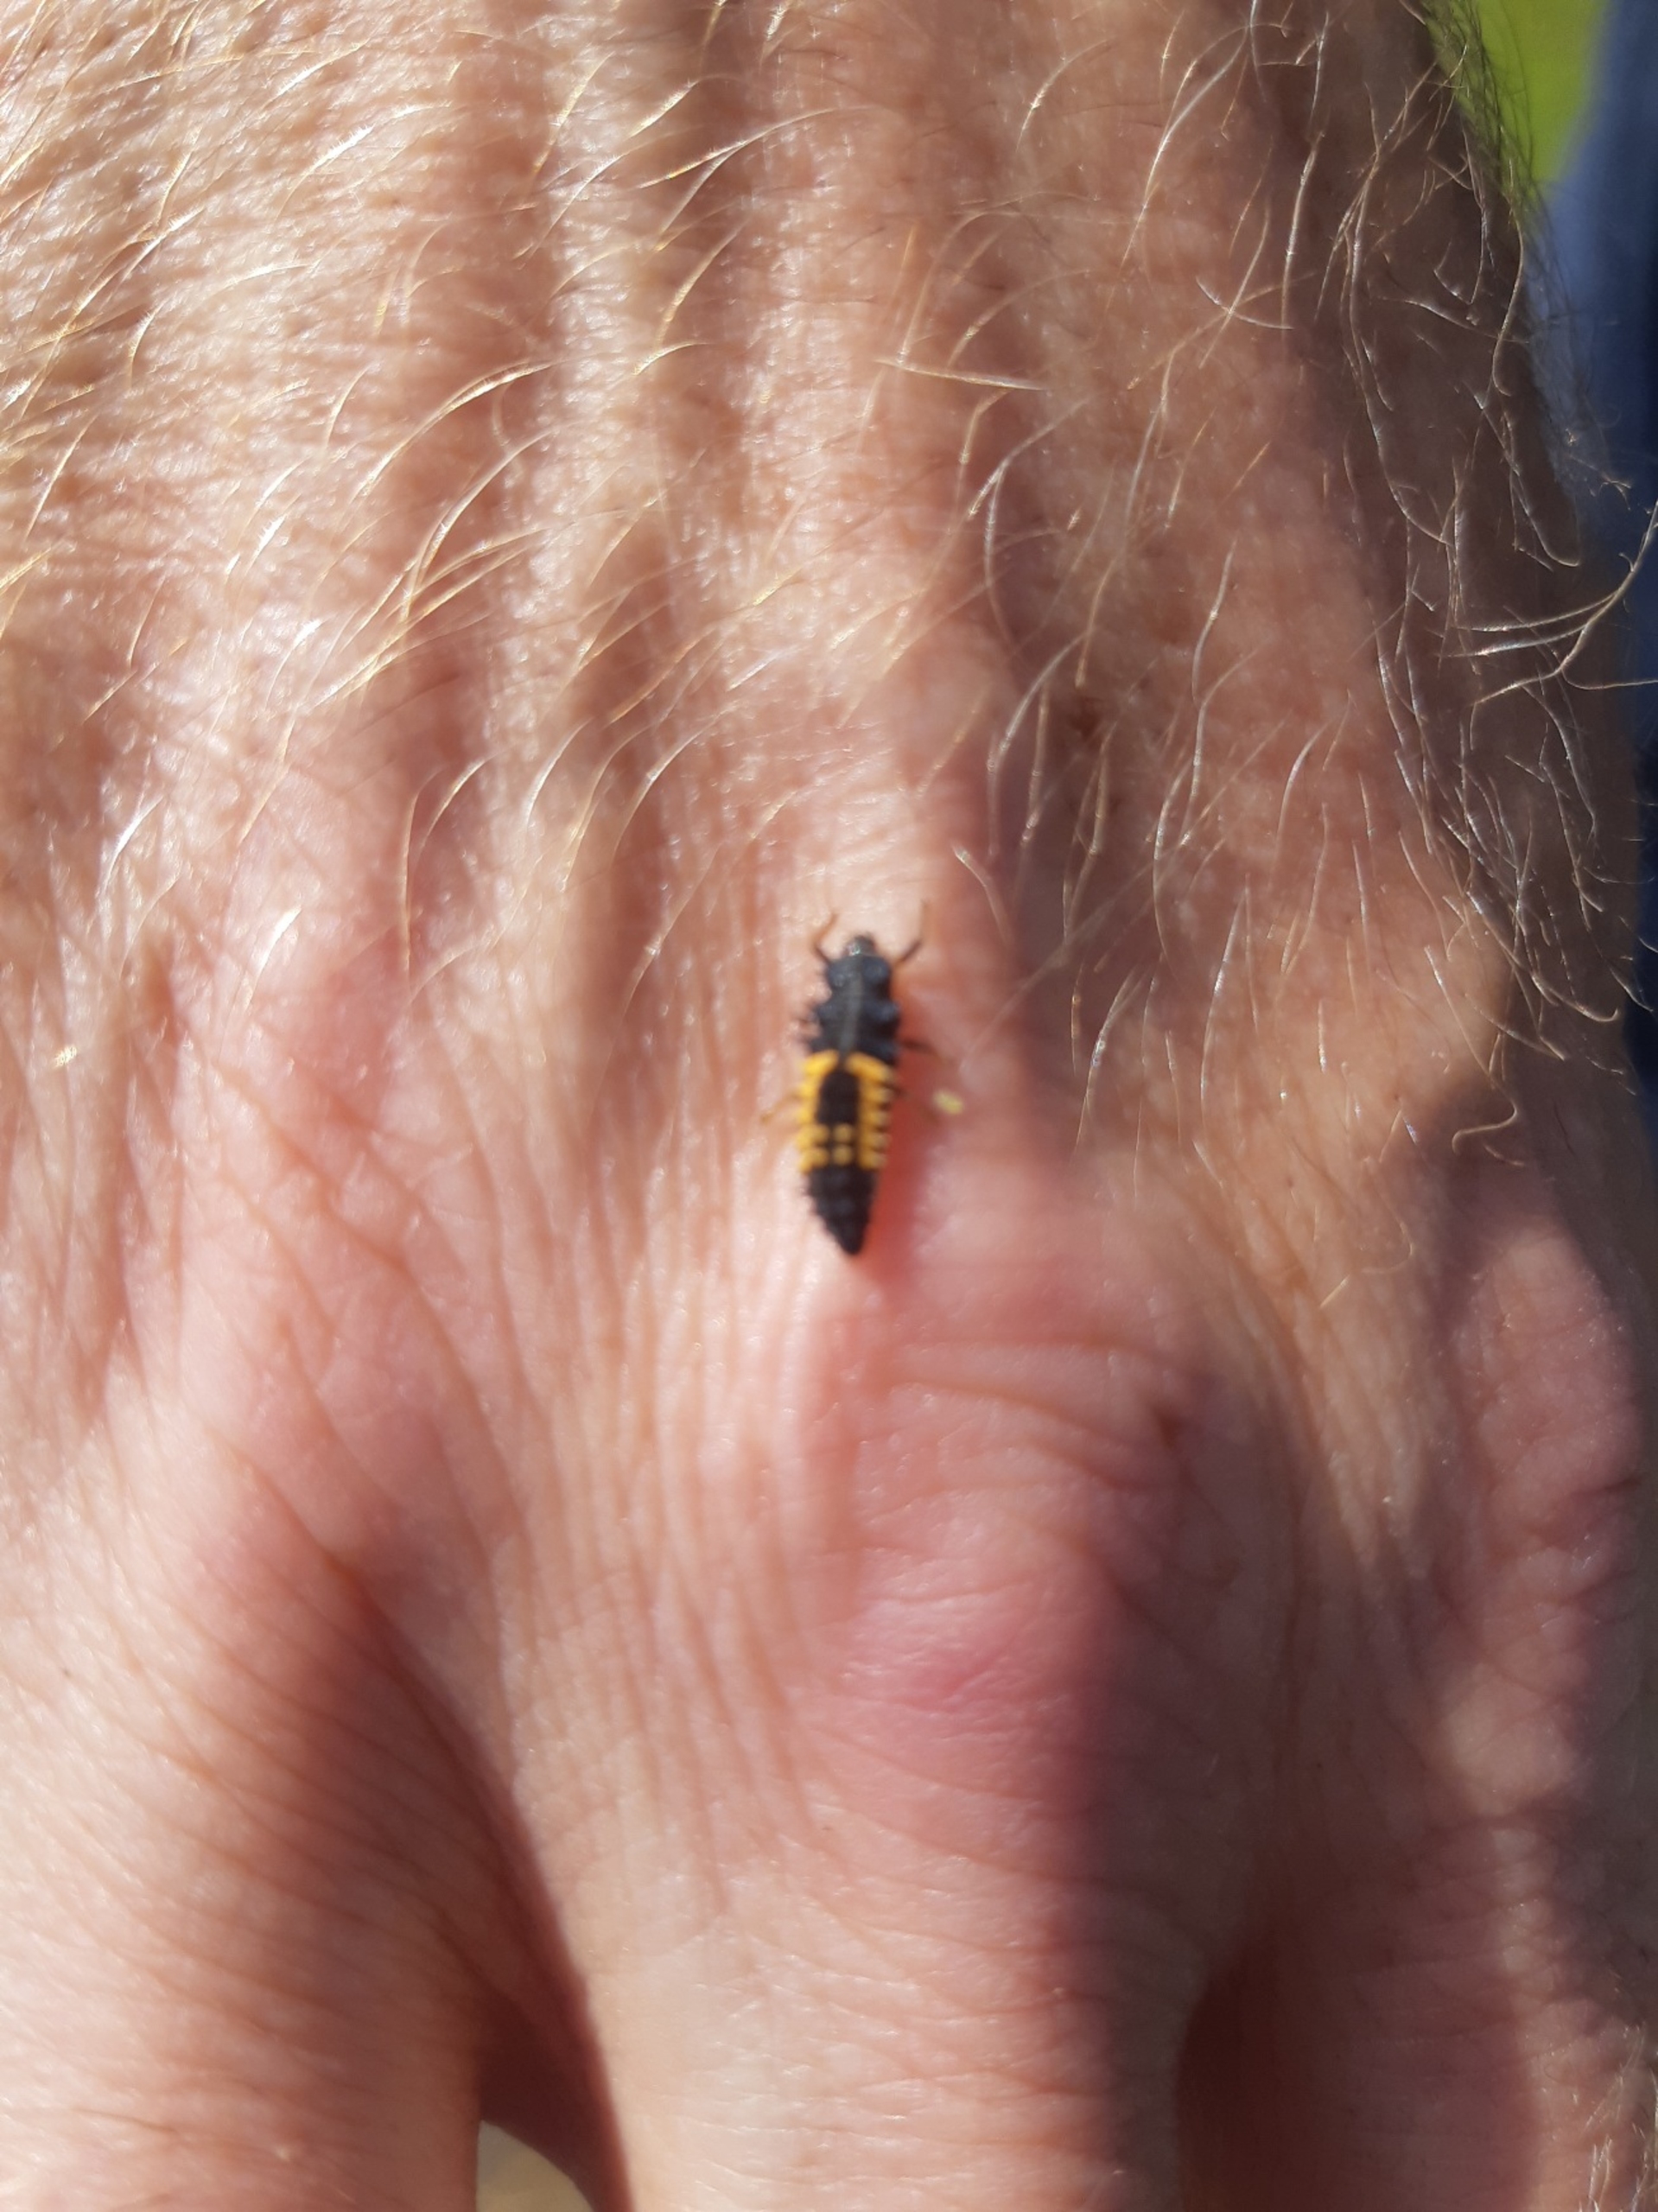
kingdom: Animalia
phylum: Arthropoda
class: Insecta
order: Coleoptera
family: Coccinellidae
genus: Harmonia
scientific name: Harmonia axyridis
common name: Harlekinmariehøne
